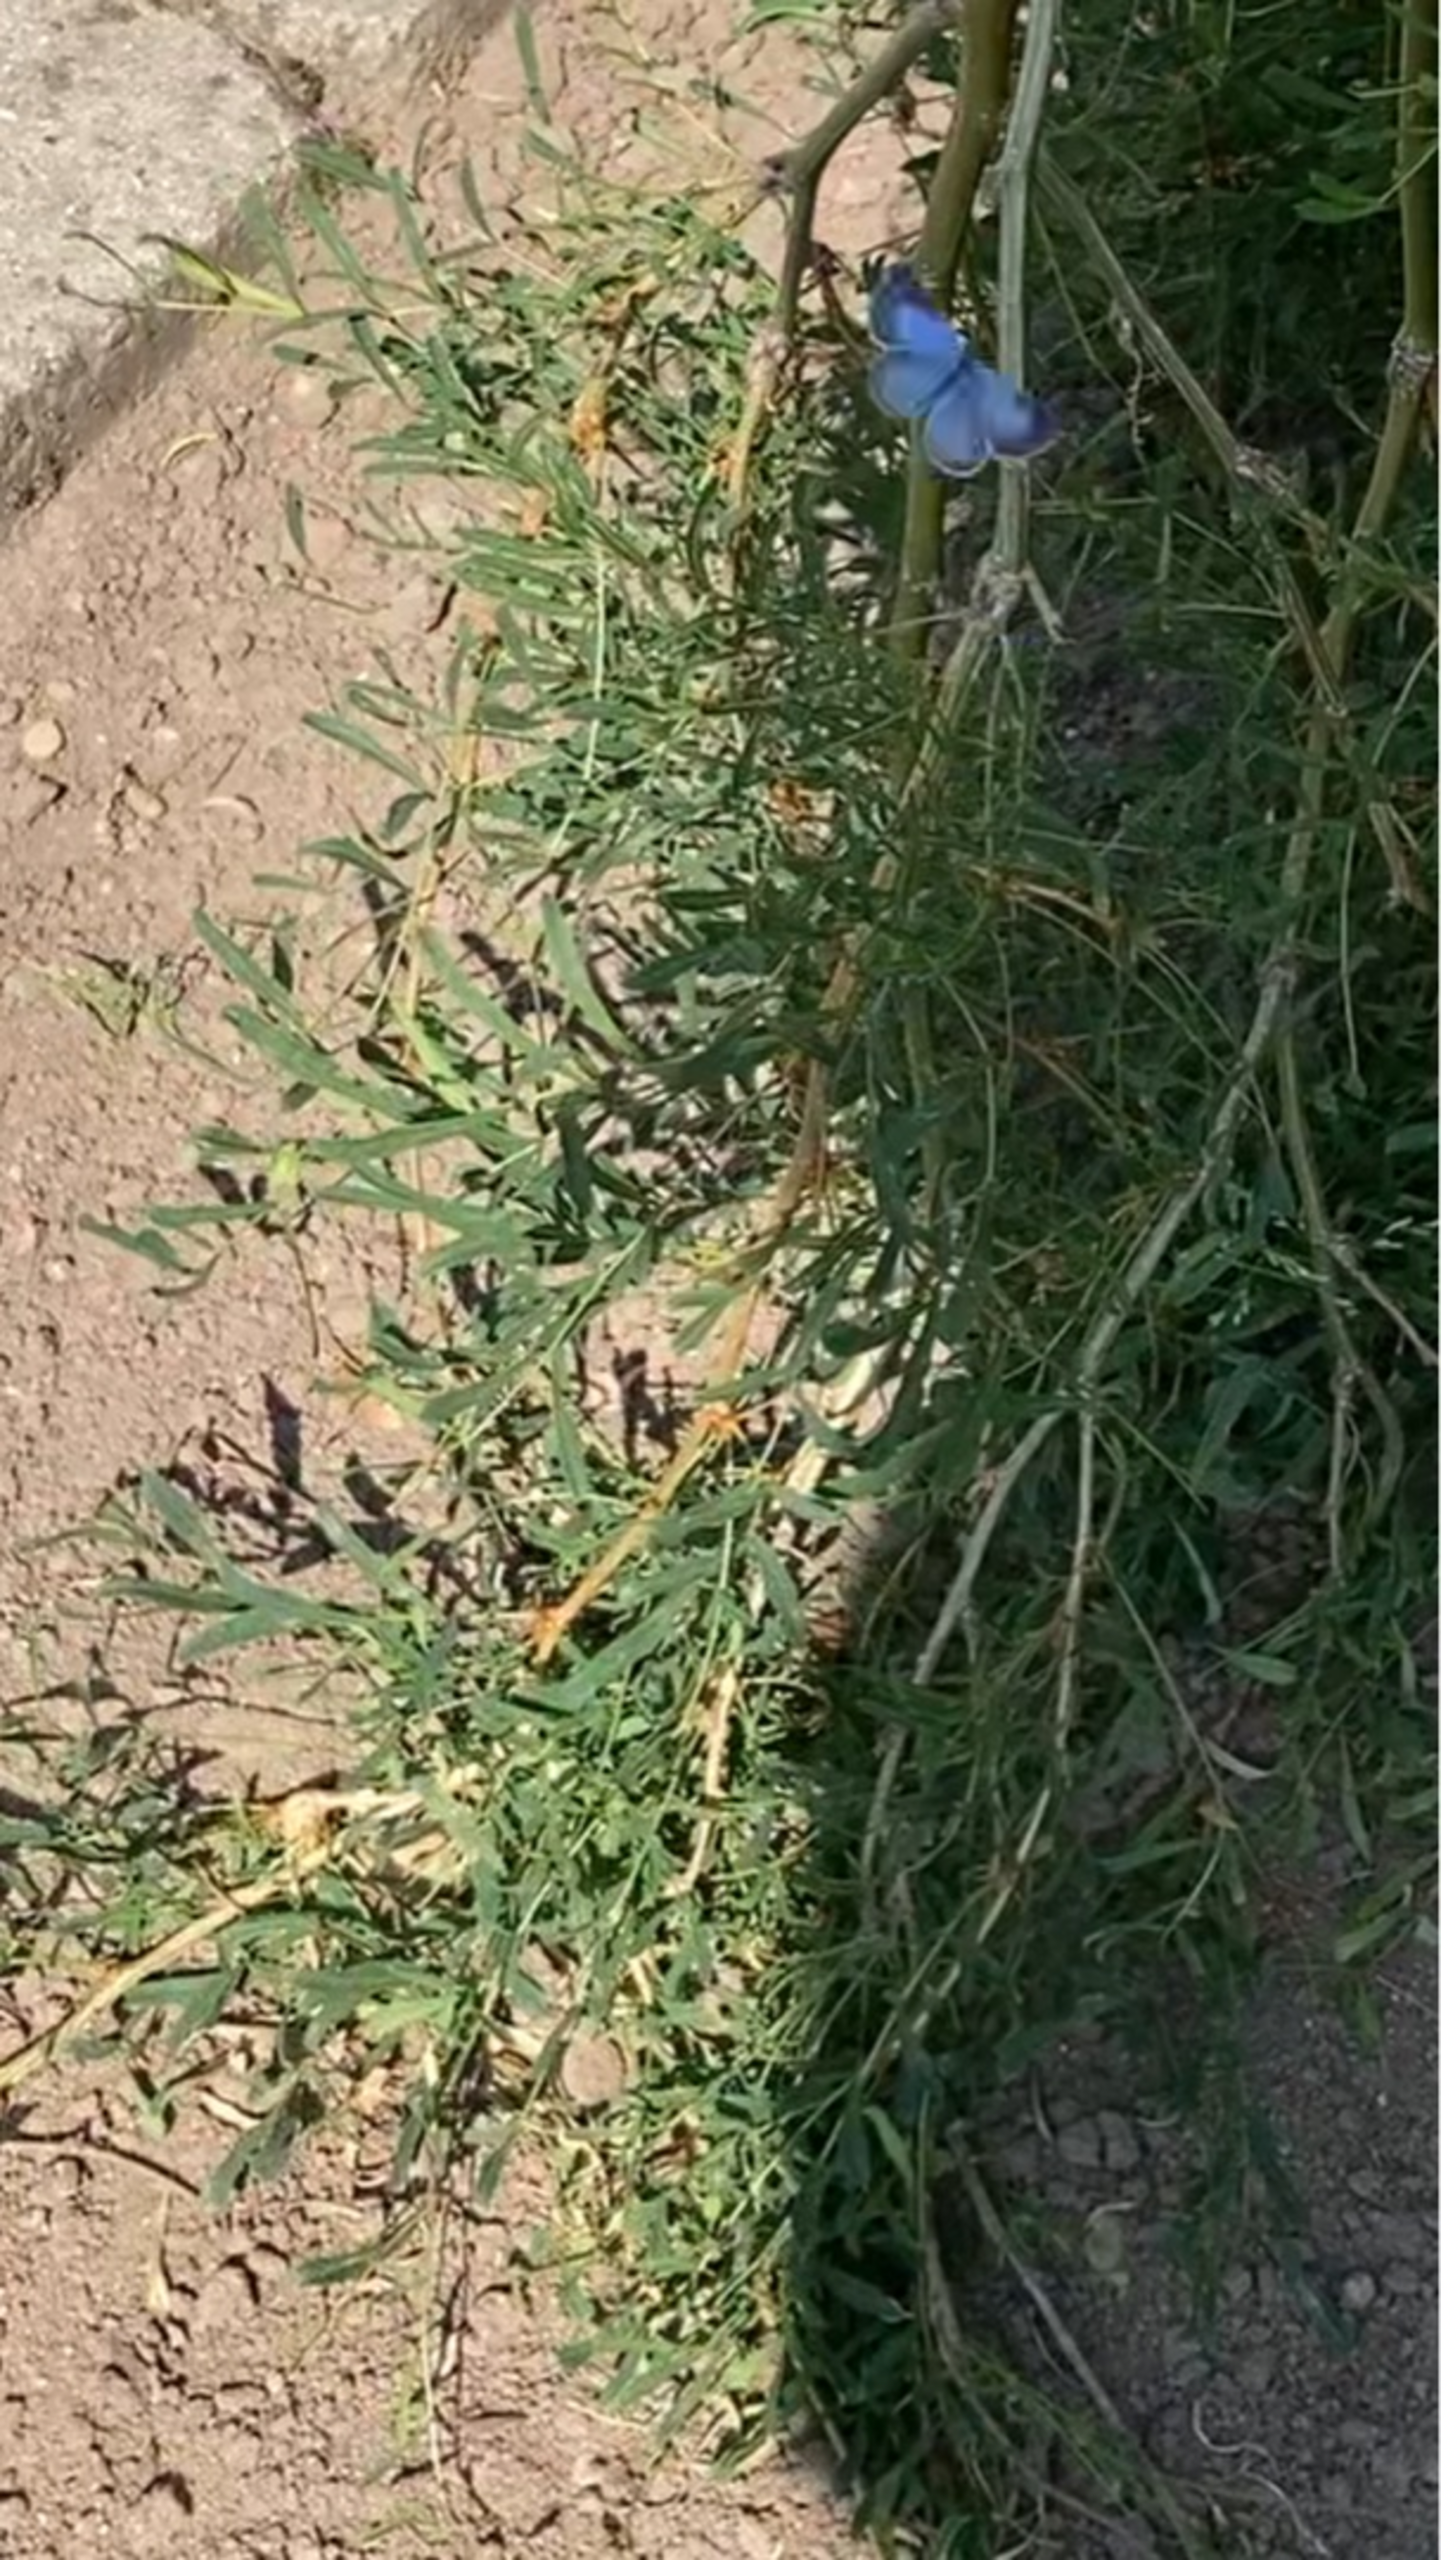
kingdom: Animalia
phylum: Arthropoda
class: Insecta
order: Lepidoptera
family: Lycaenidae
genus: Celastrina
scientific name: Celastrina argiolus
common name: Skovblåfugl
